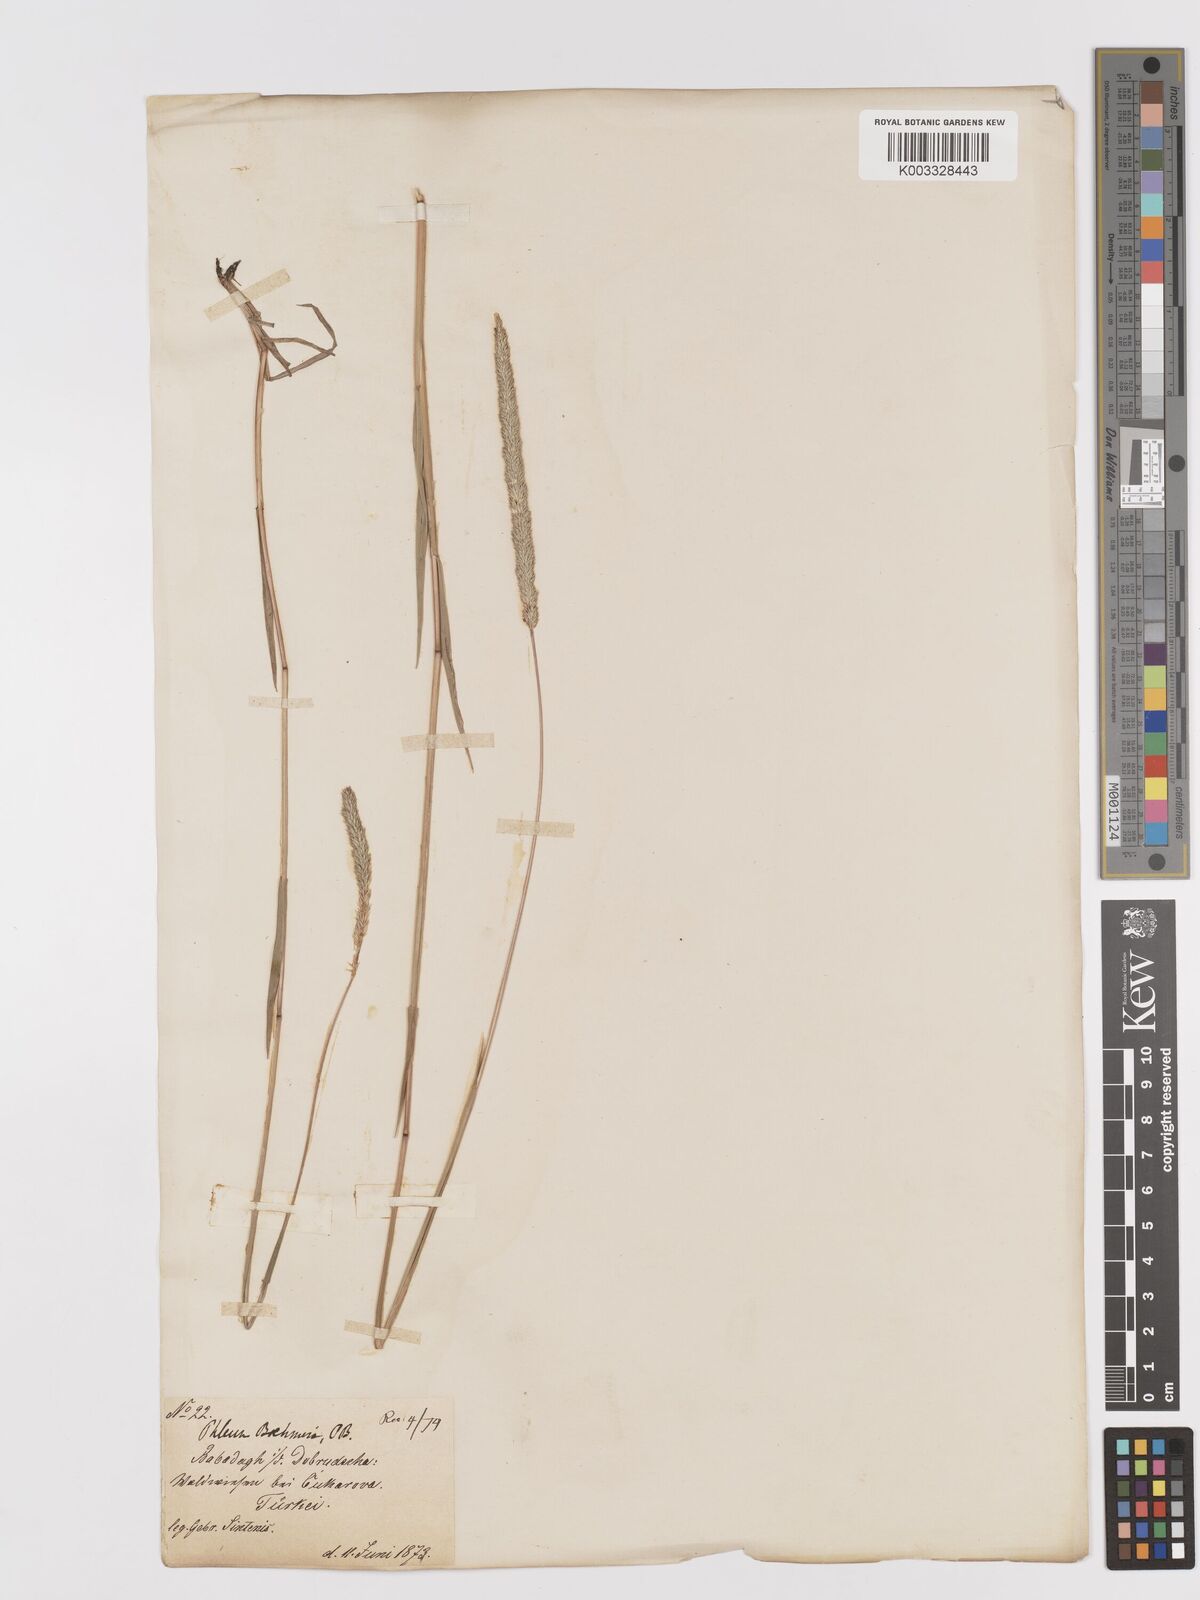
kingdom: Plantae
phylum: Tracheophyta
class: Liliopsida
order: Poales
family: Poaceae
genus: Phleum
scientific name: Phleum phleoides
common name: Purple-stem cat's-tail
